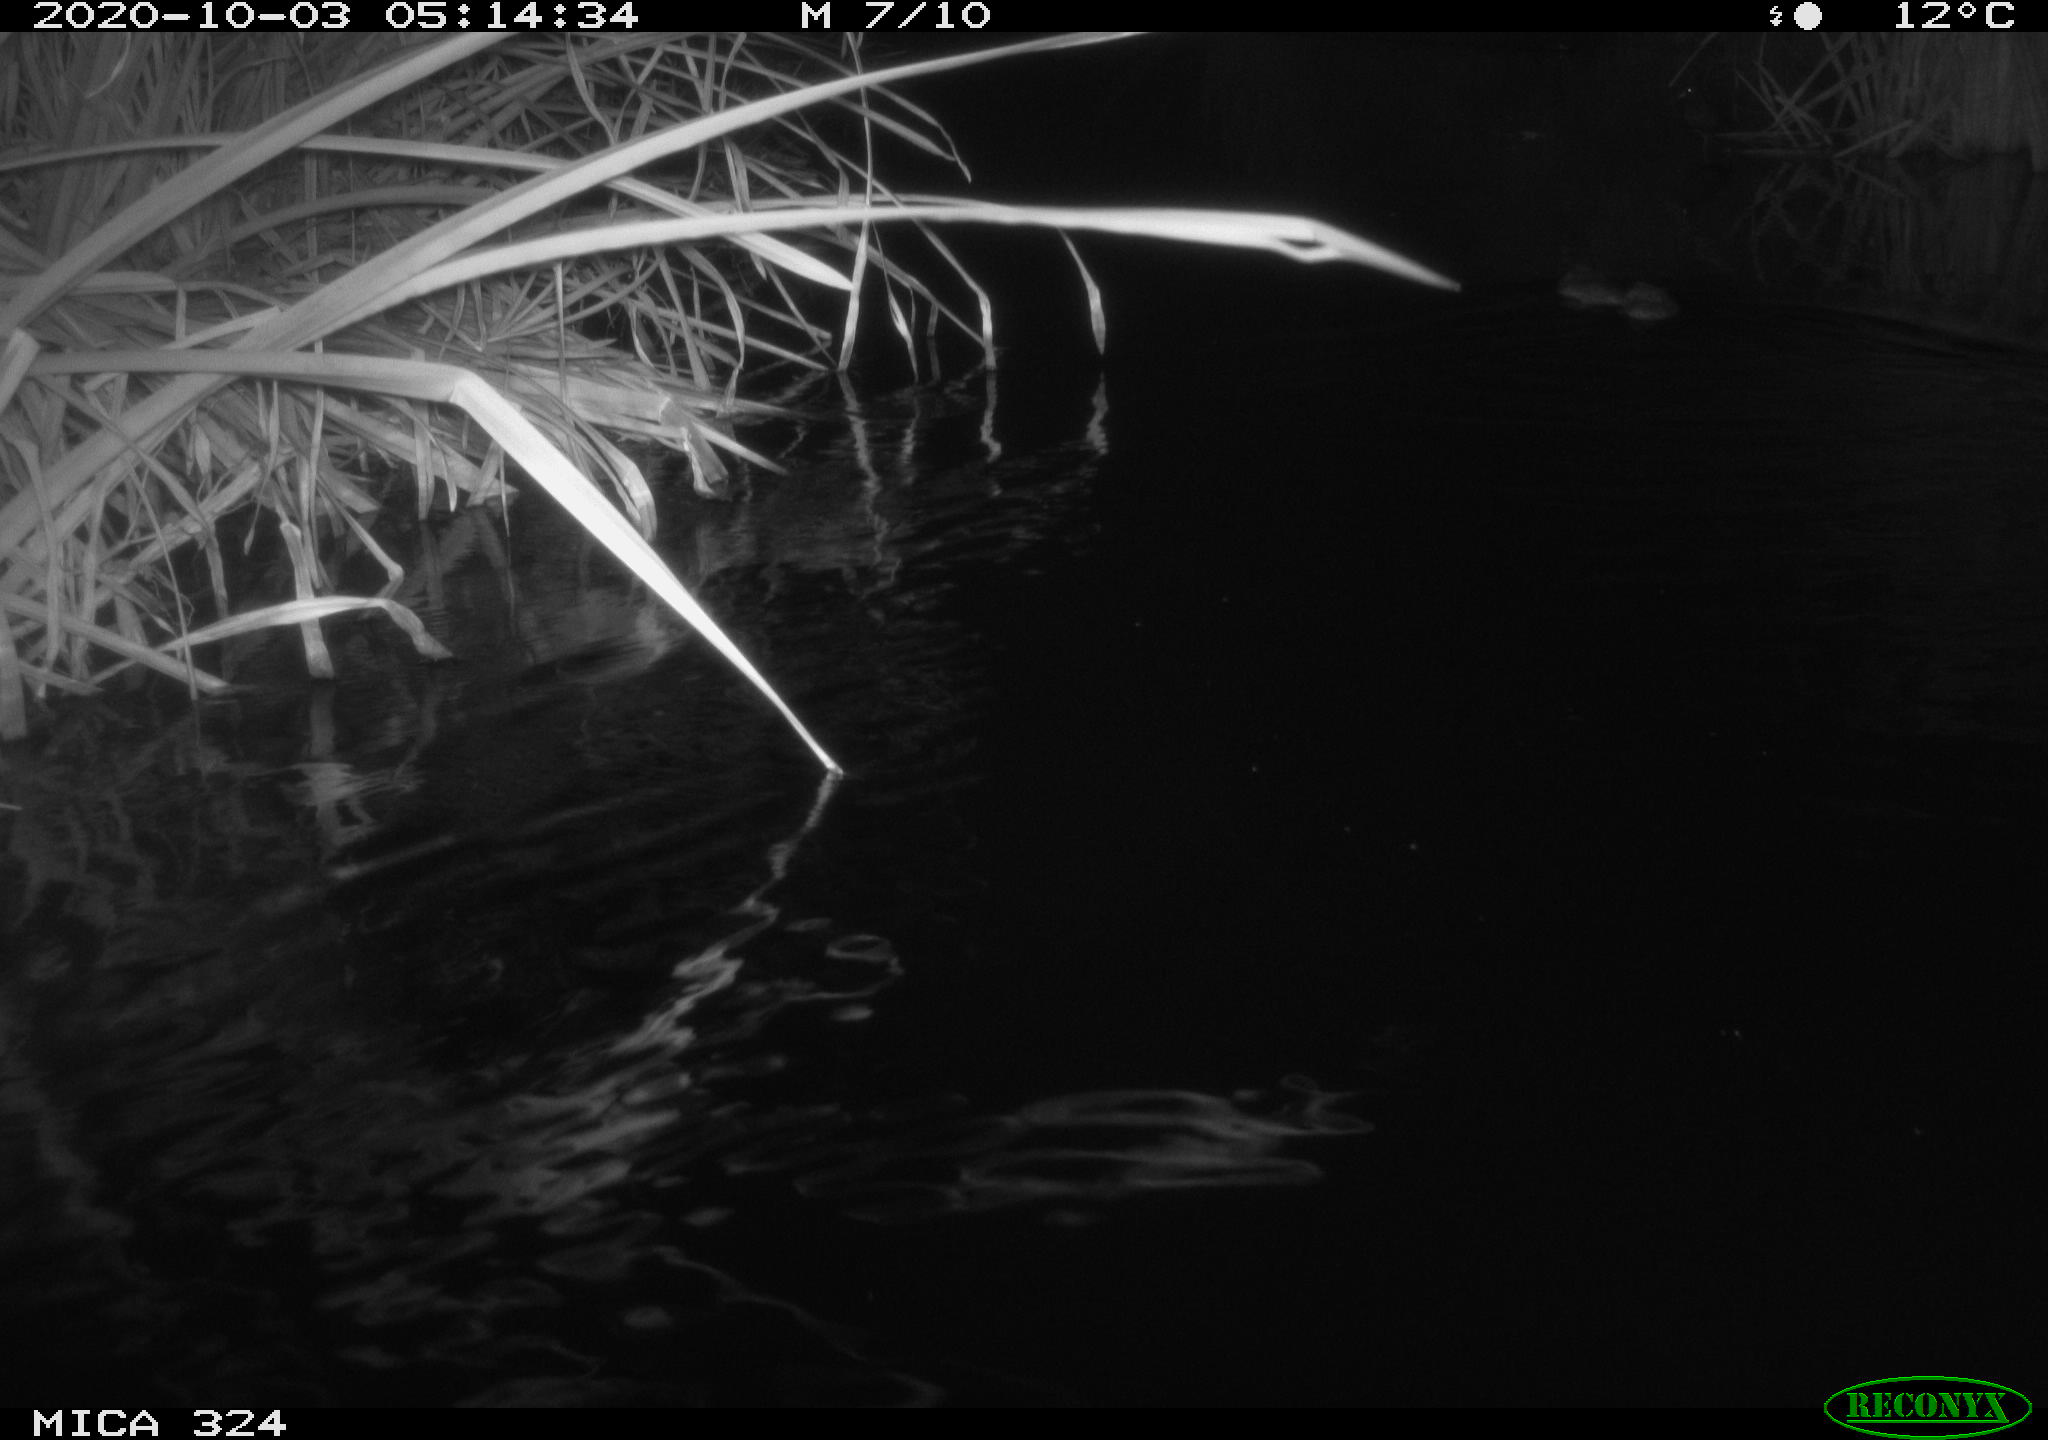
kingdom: Animalia
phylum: Chordata
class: Mammalia
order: Rodentia
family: Myocastoridae
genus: Myocastor
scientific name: Myocastor coypus
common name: Coypu
